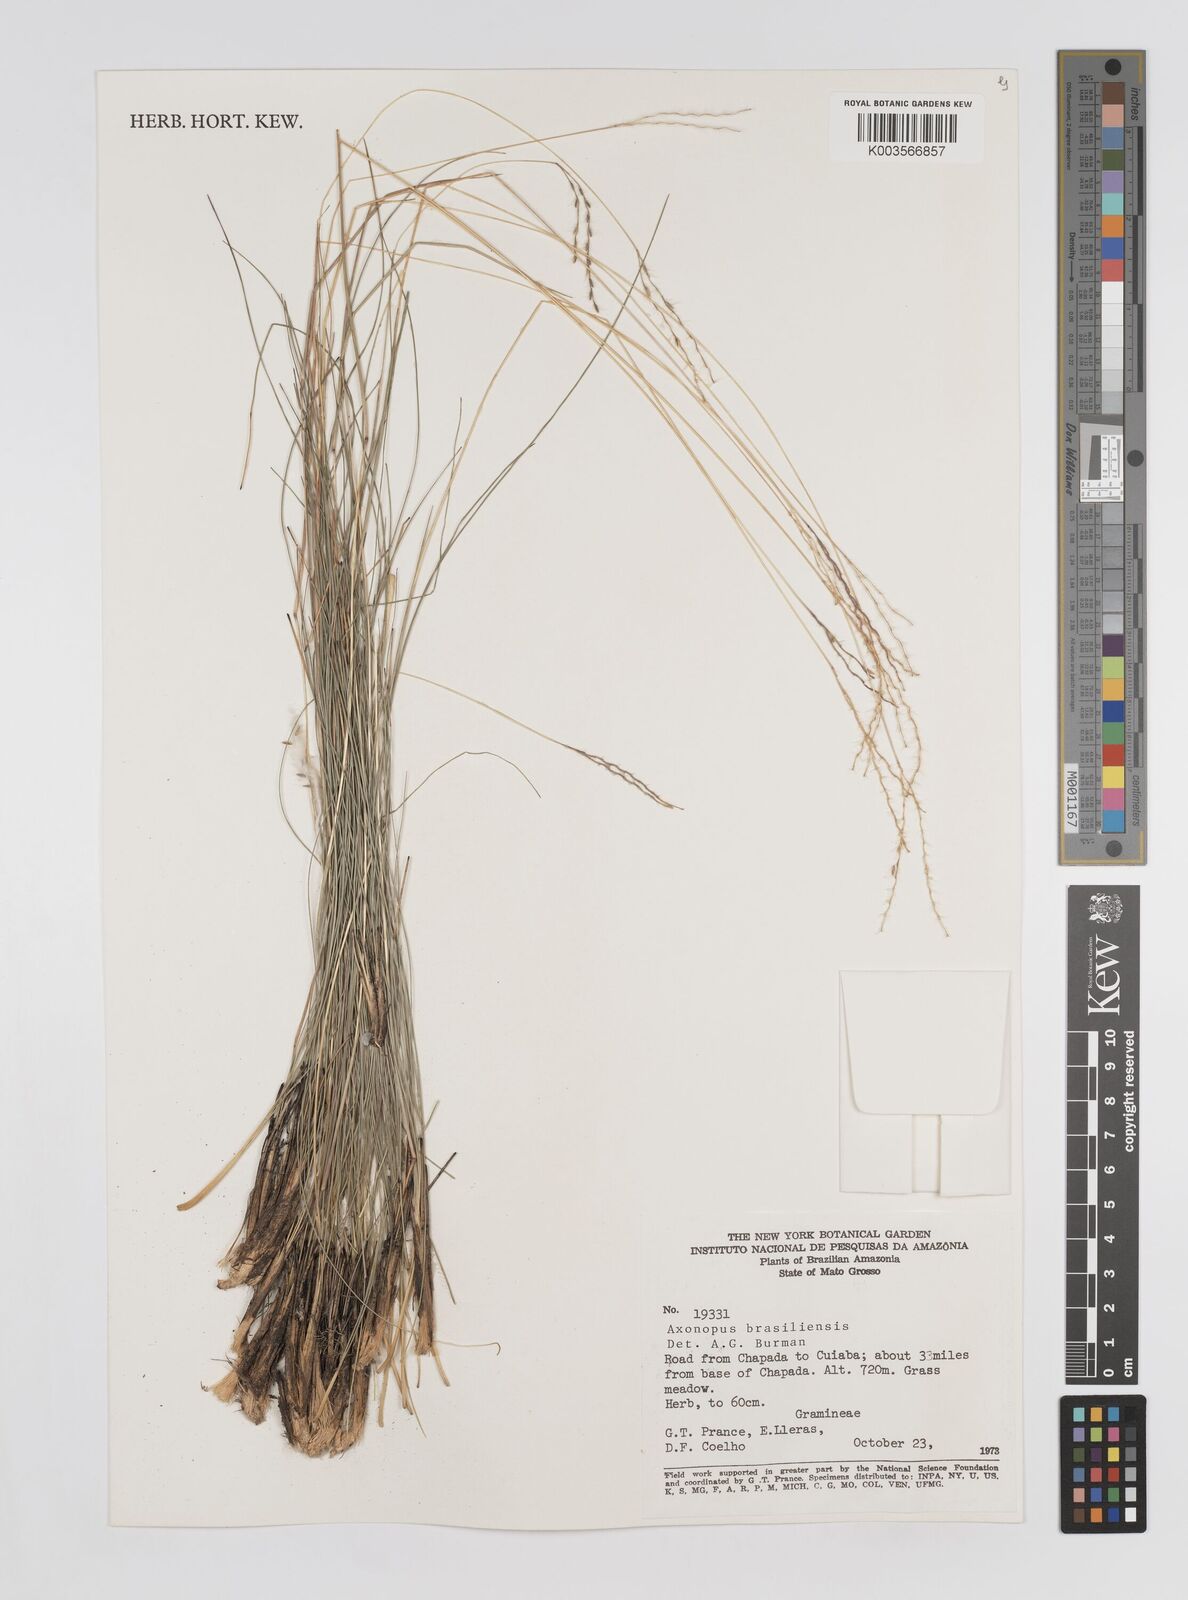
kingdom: Plantae
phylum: Tracheophyta
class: Liliopsida
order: Poales
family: Poaceae
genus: Axonopus
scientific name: Axonopus brasiliensis
